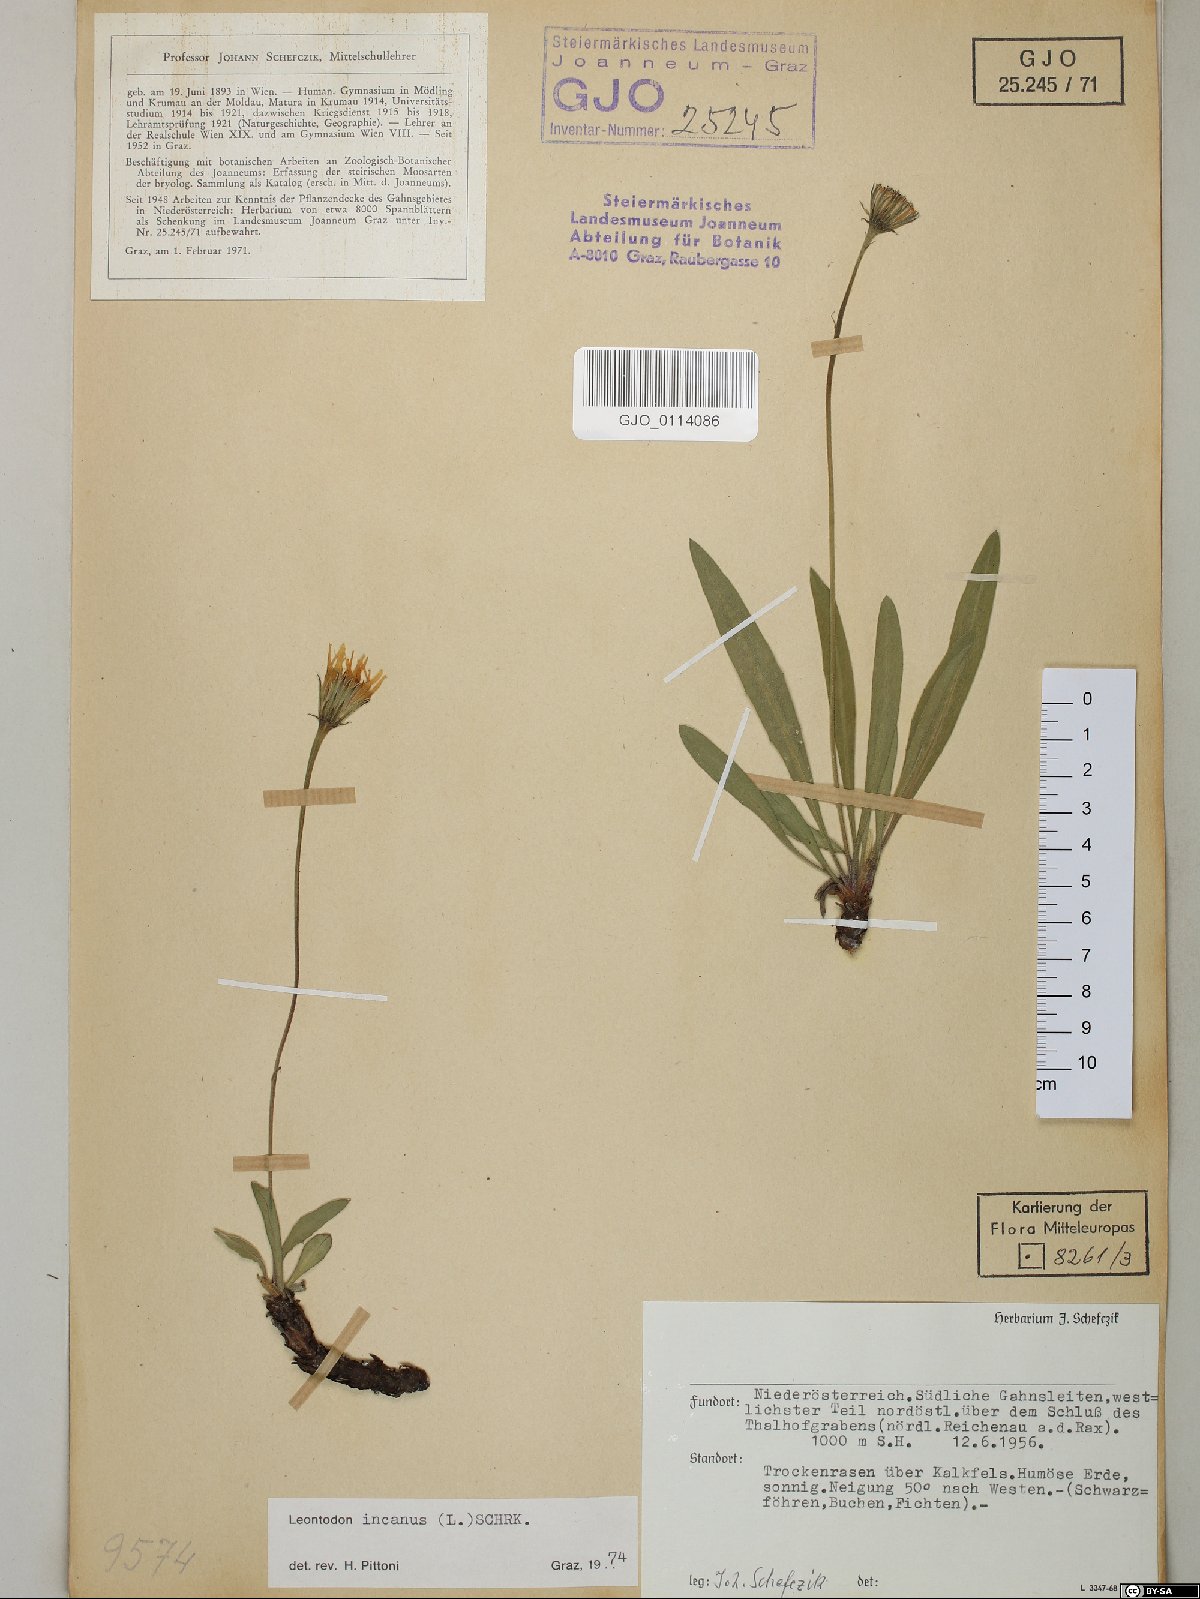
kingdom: Plantae
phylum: Tracheophyta
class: Magnoliopsida
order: Asterales
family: Asteraceae
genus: Leontodon
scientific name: Leontodon incanus
